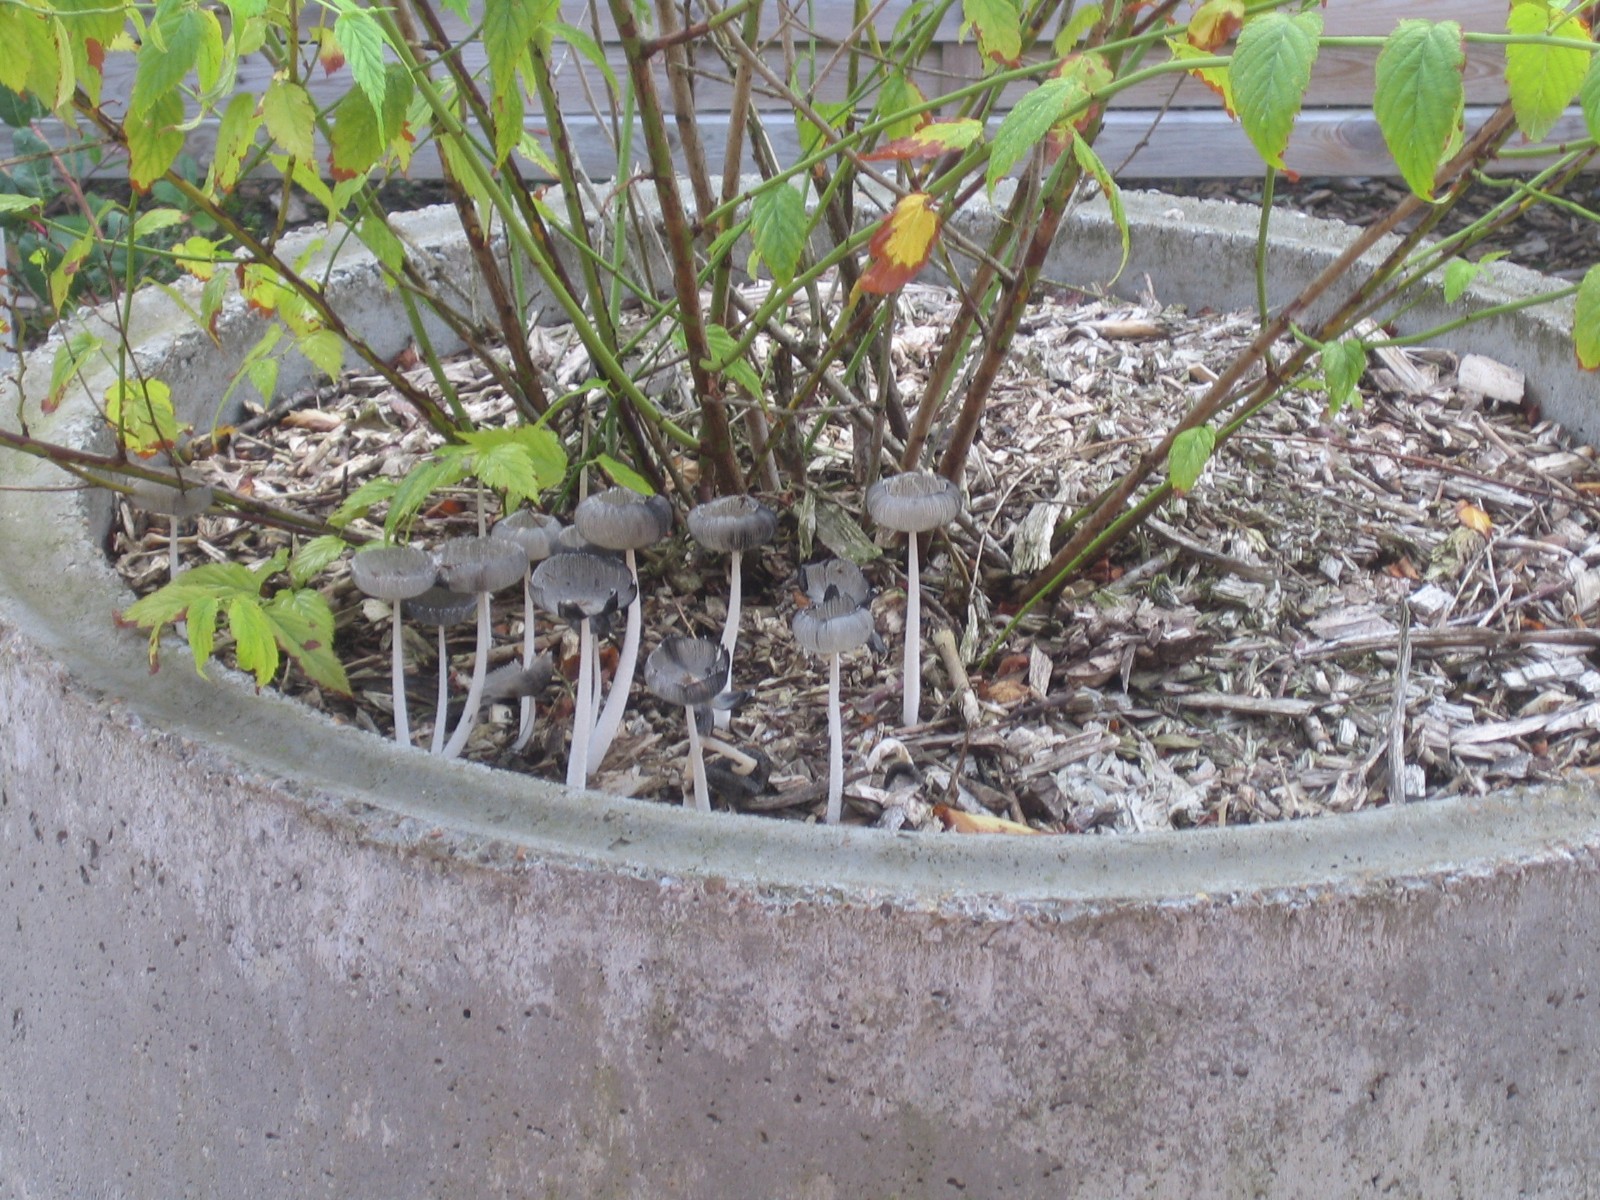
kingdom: Fungi
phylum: Basidiomycota
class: Agaricomycetes
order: Agaricales
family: Psathyrellaceae
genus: Coprinopsis
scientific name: Coprinopsis lagopus
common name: dunstokket blækhat
